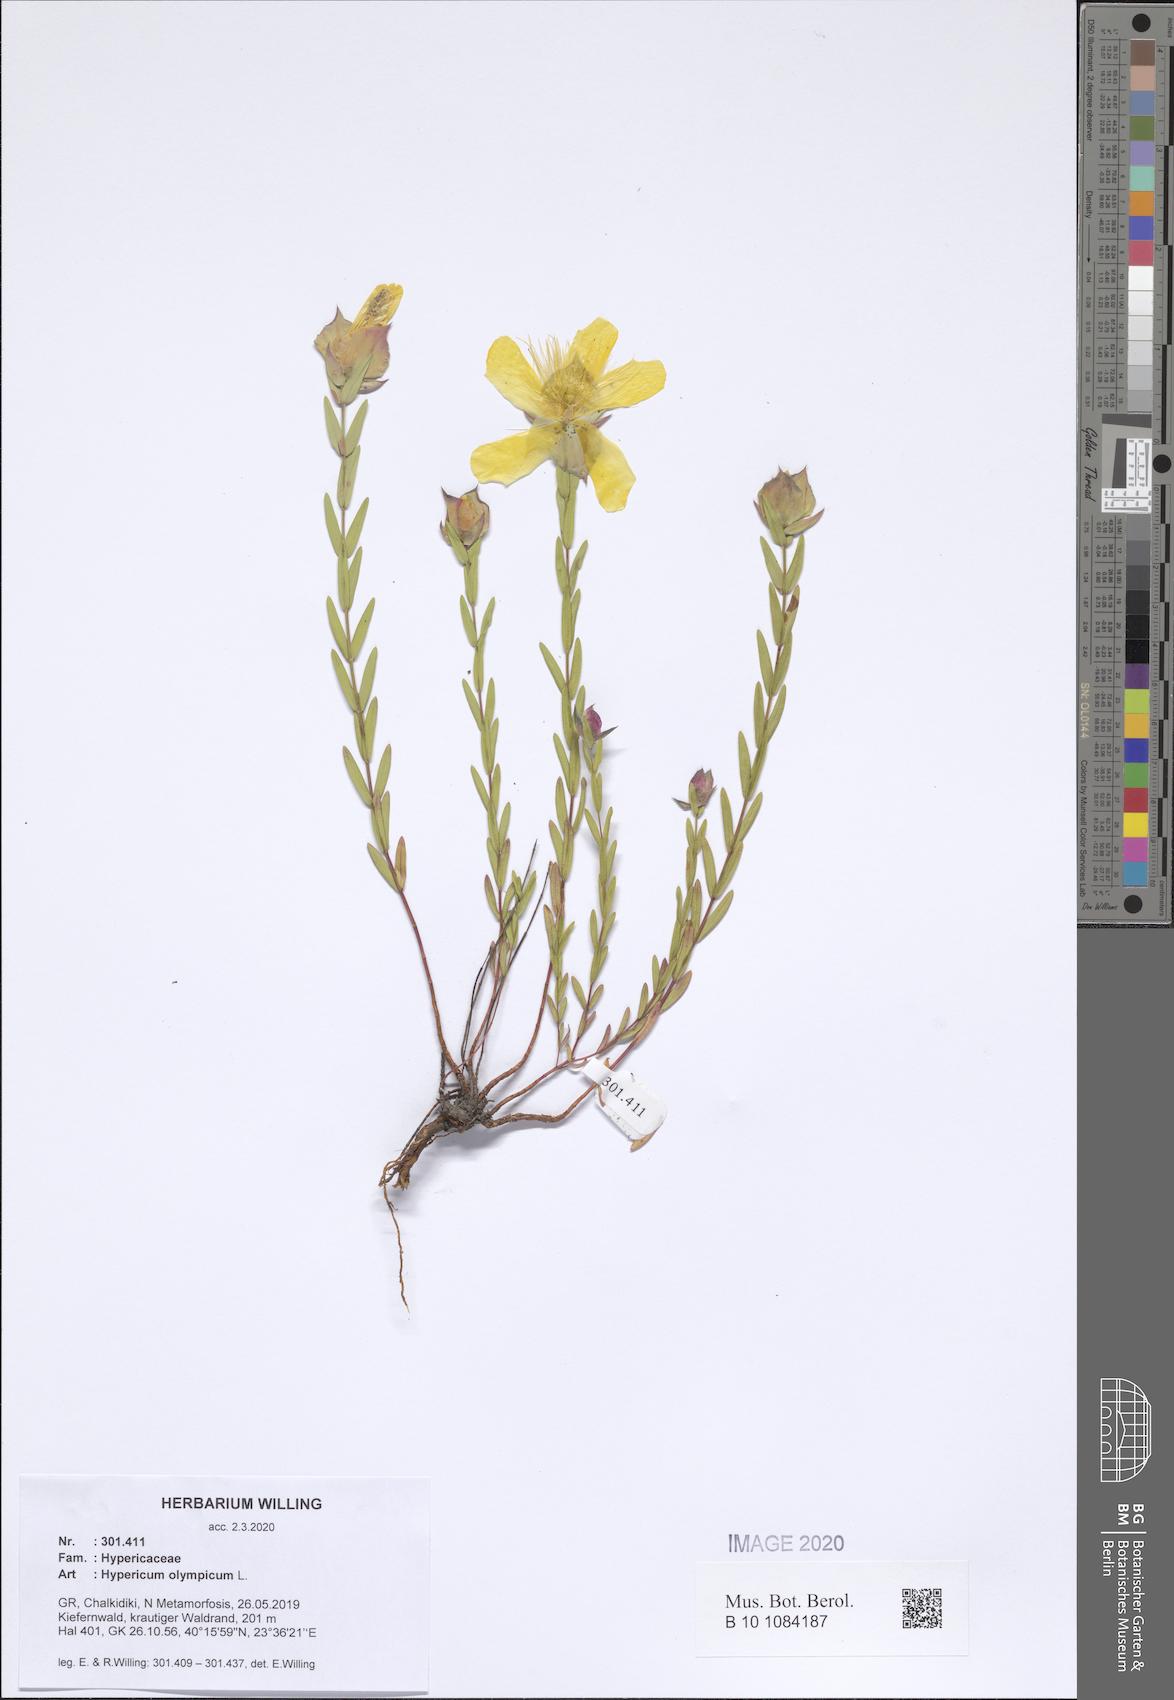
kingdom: Plantae
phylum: Tracheophyta
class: Magnoliopsida
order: Malpighiales
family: Hypericaceae
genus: Hypericum
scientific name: Hypericum olympicum
